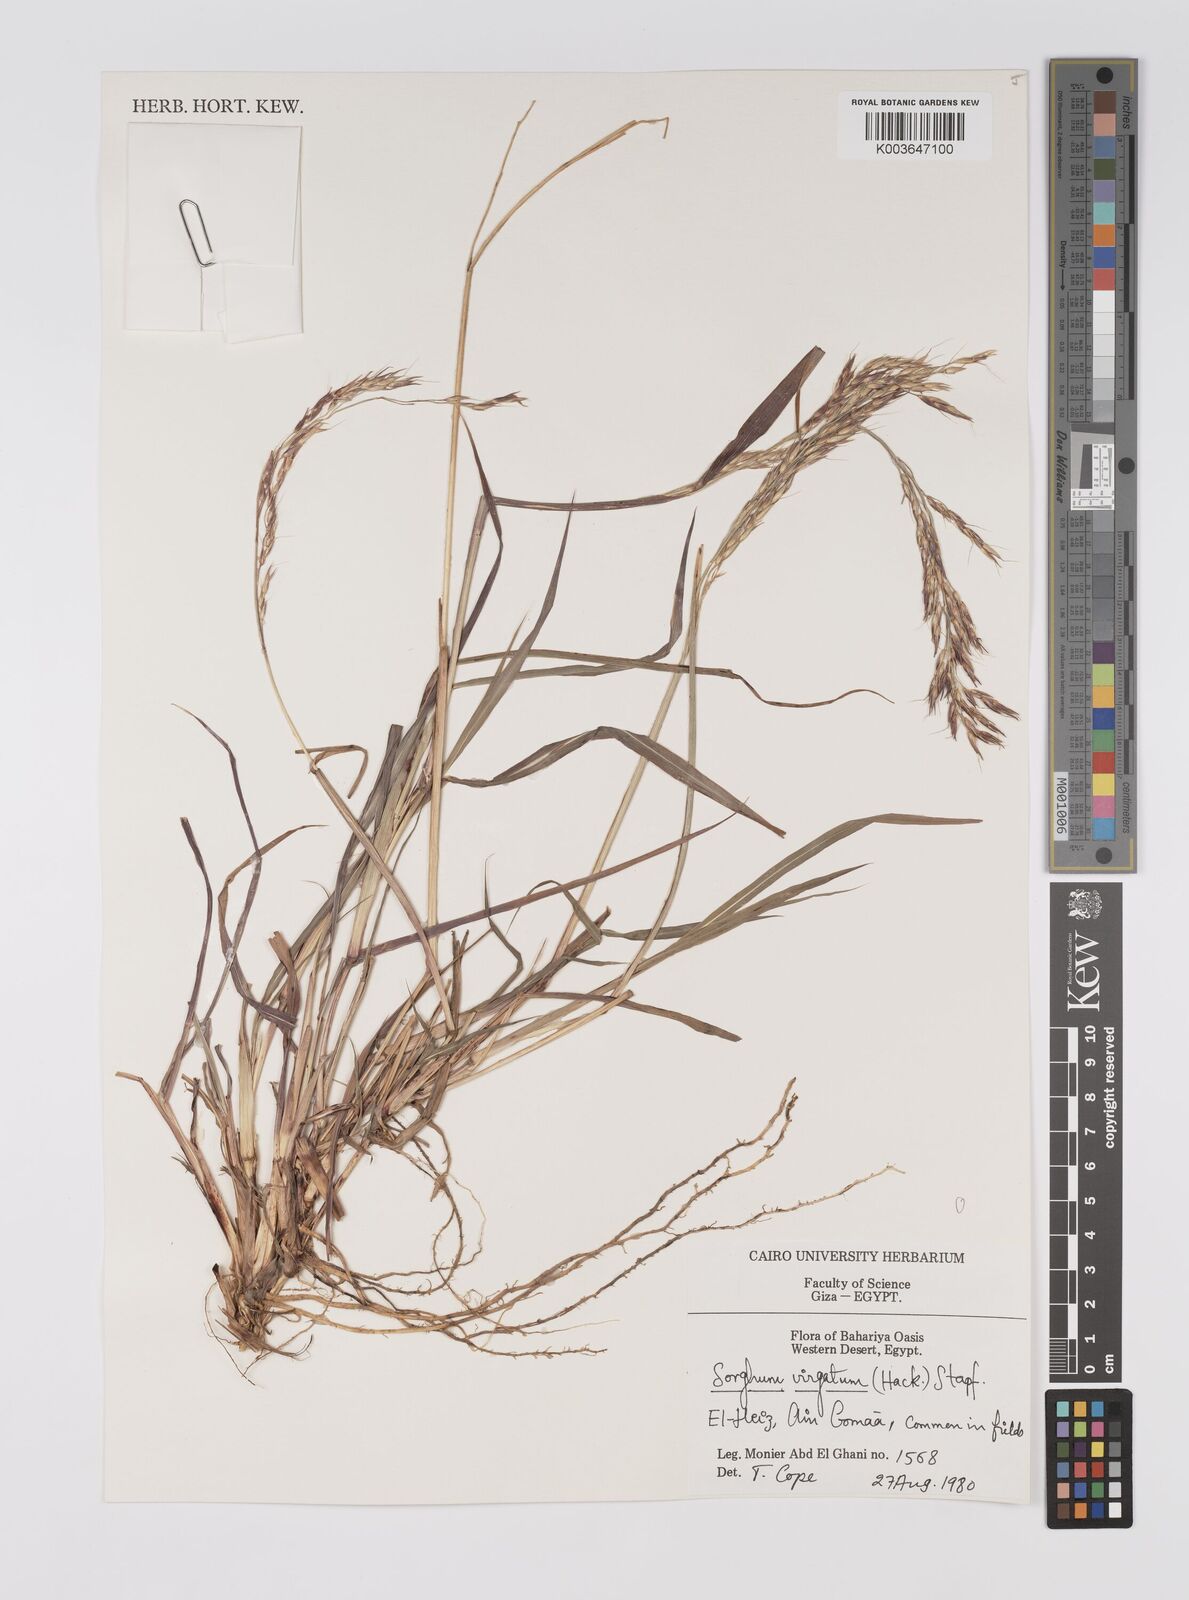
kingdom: Plantae
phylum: Tracheophyta
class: Liliopsida
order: Poales
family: Poaceae
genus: Sorghum
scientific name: Sorghum virgatum
